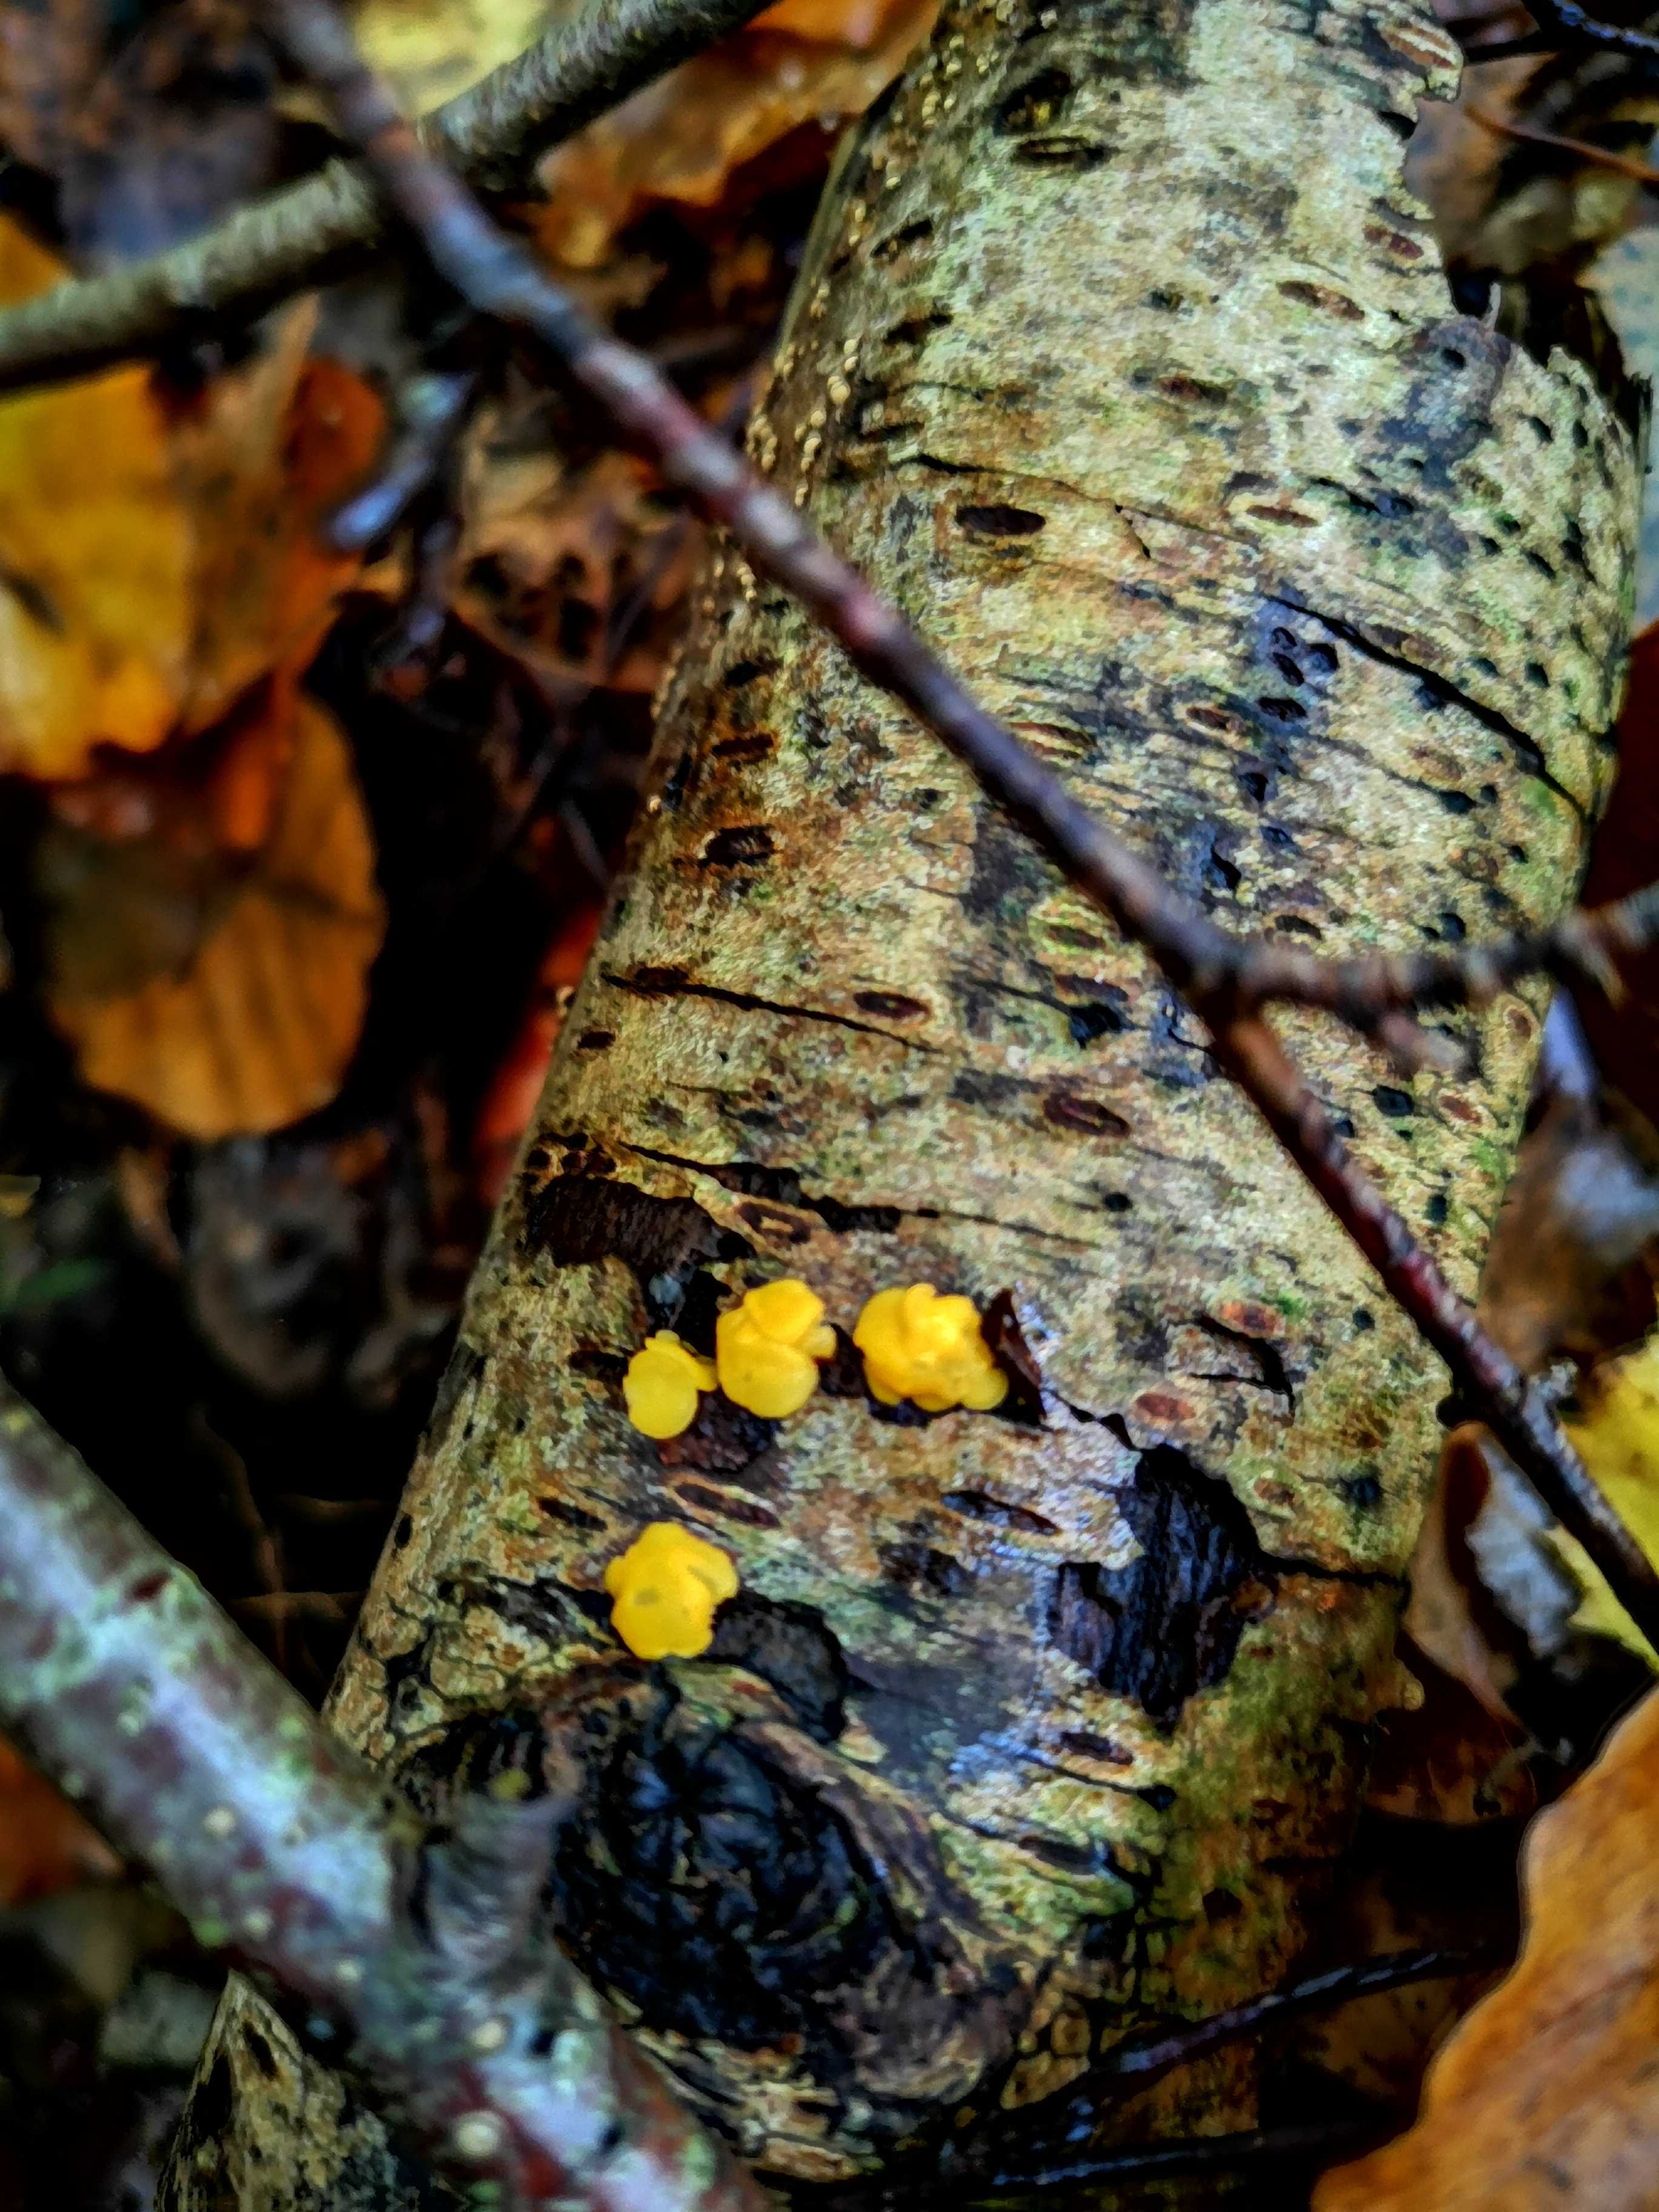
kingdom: Fungi
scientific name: Fungi
